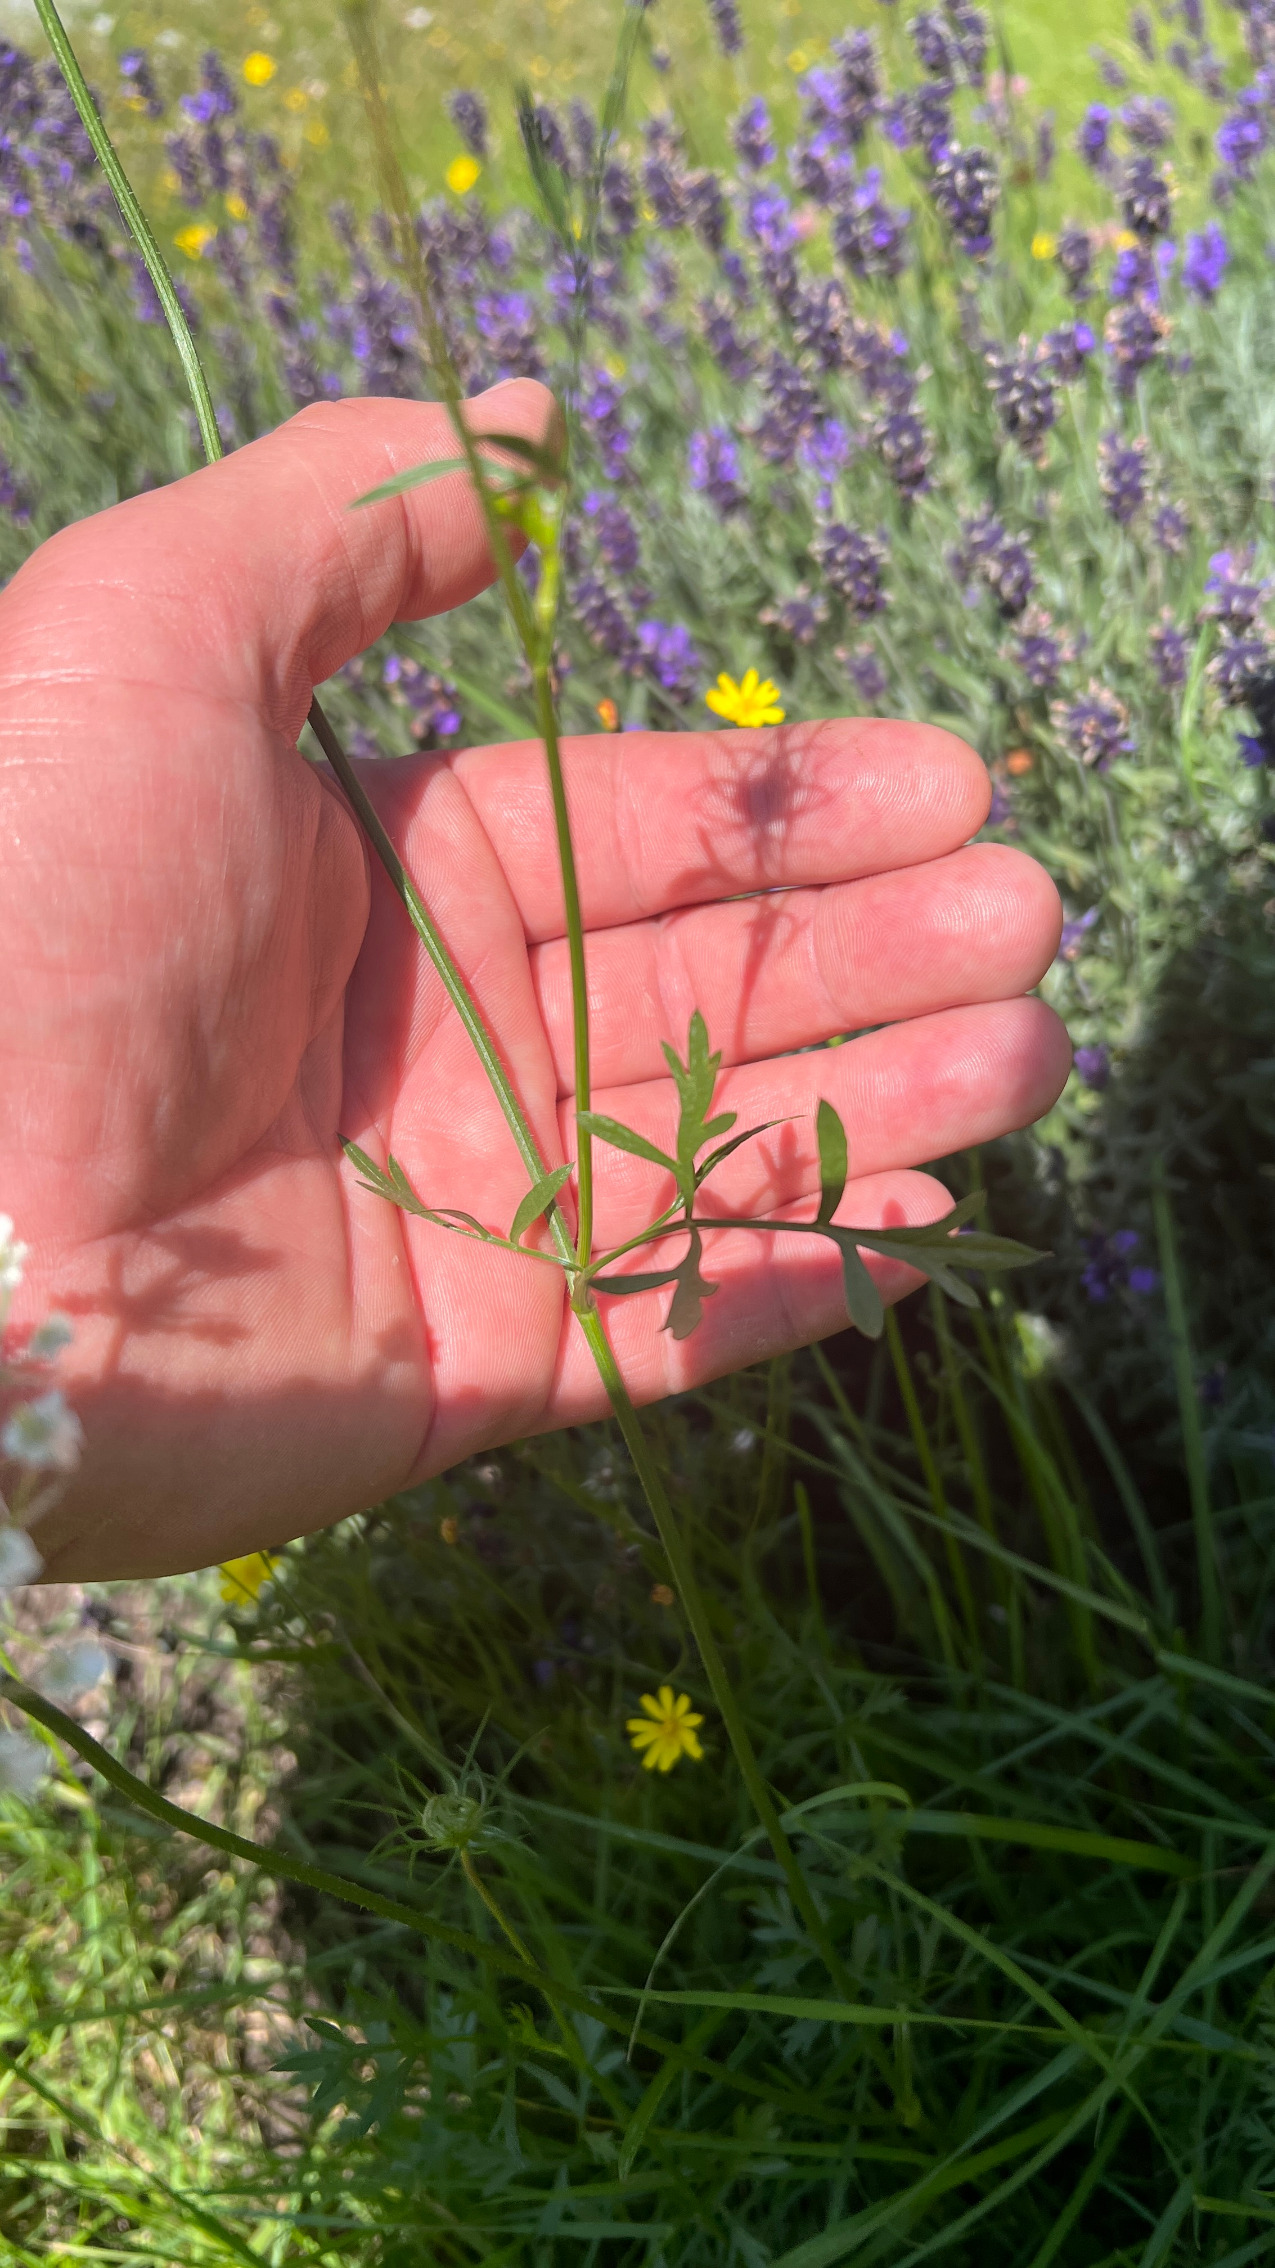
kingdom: Plantae
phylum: Tracheophyta
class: Magnoliopsida
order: Apiales
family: Apiaceae
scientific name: Apiaceae
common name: Skærmplantefamilien
